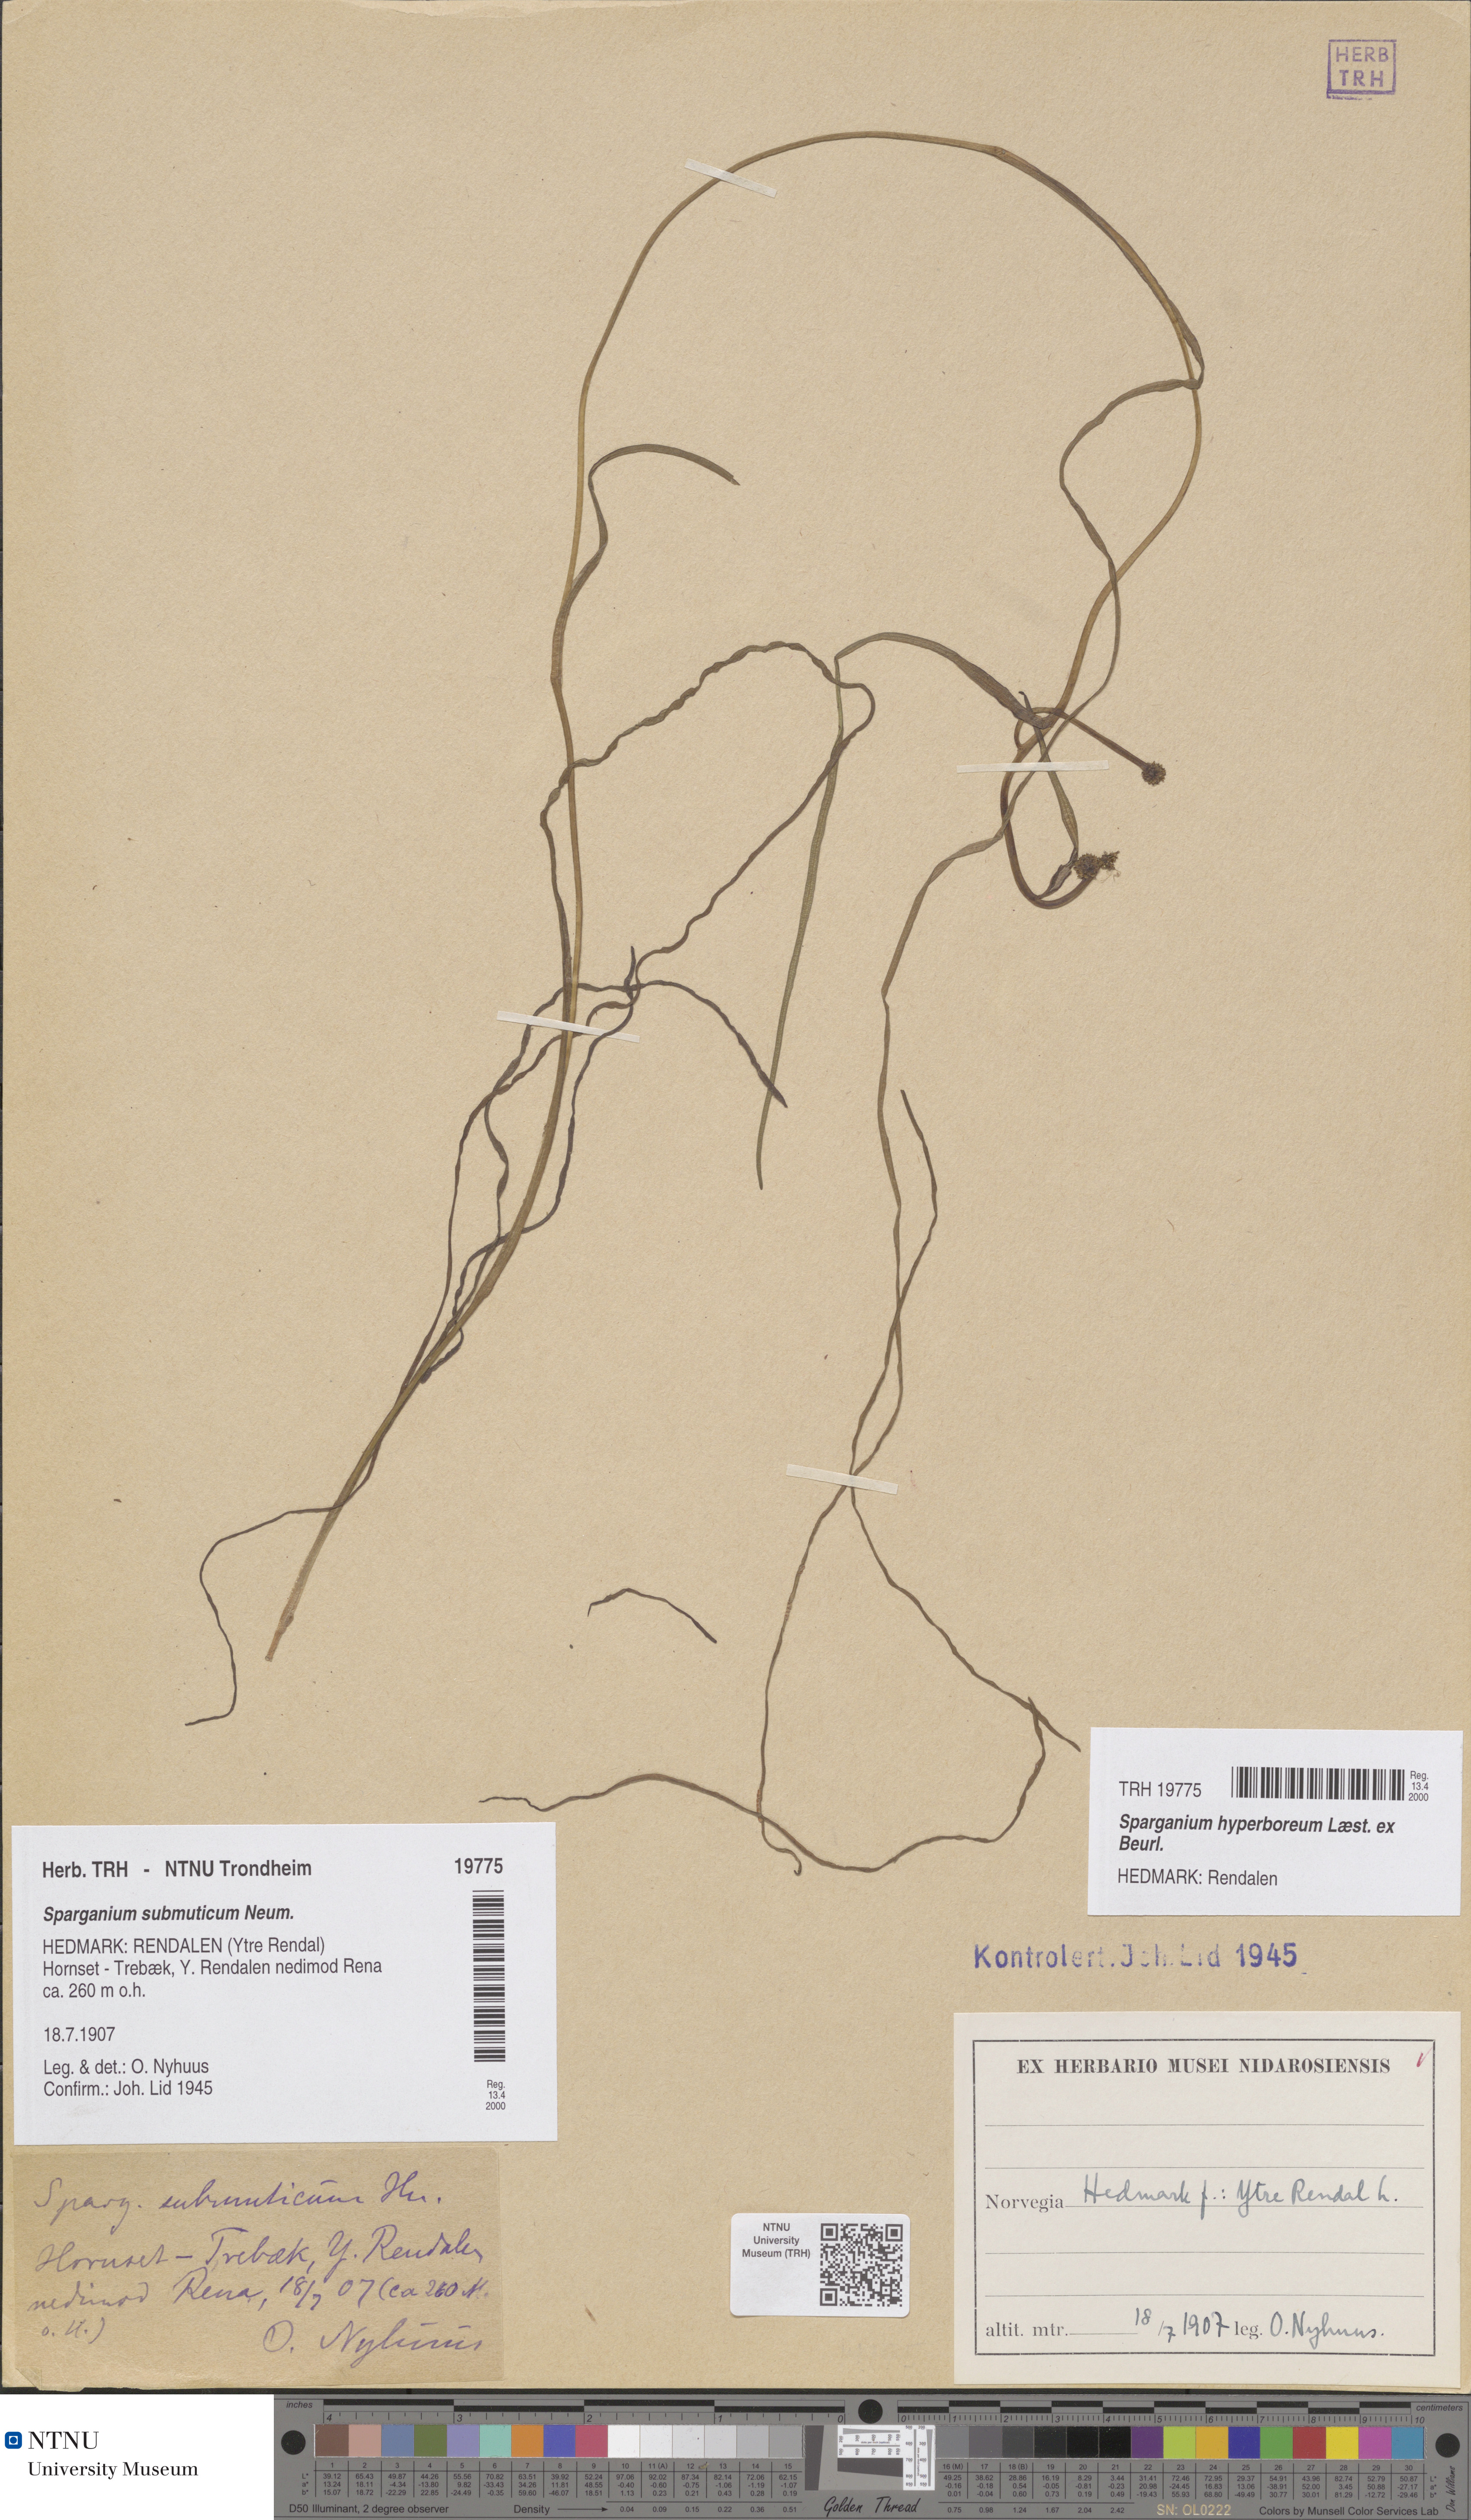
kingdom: Plantae
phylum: Tracheophyta
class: Liliopsida
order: Poales
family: Typhaceae
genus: Sparganium
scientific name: Sparganium hyperboreum
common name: Arctic burreed
